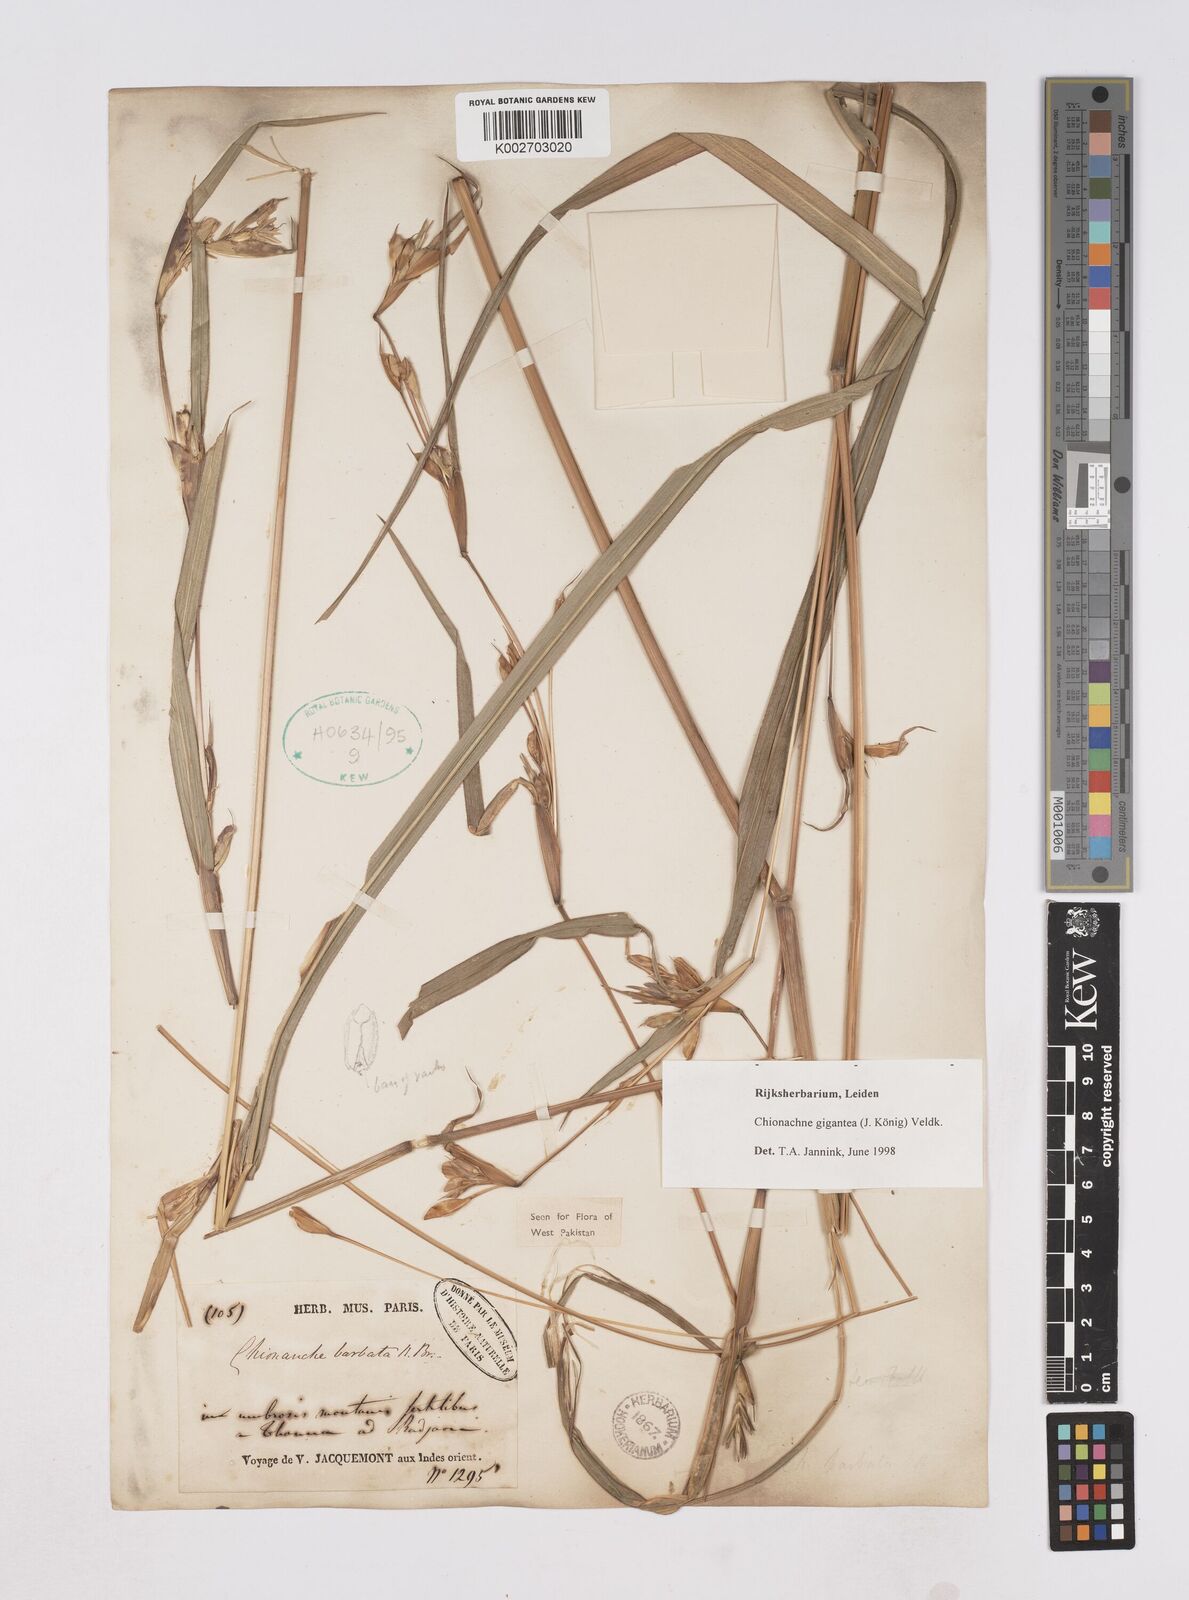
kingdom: Plantae
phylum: Tracheophyta
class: Liliopsida
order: Poales
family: Poaceae
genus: Polytoca
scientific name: Polytoca gigantea
